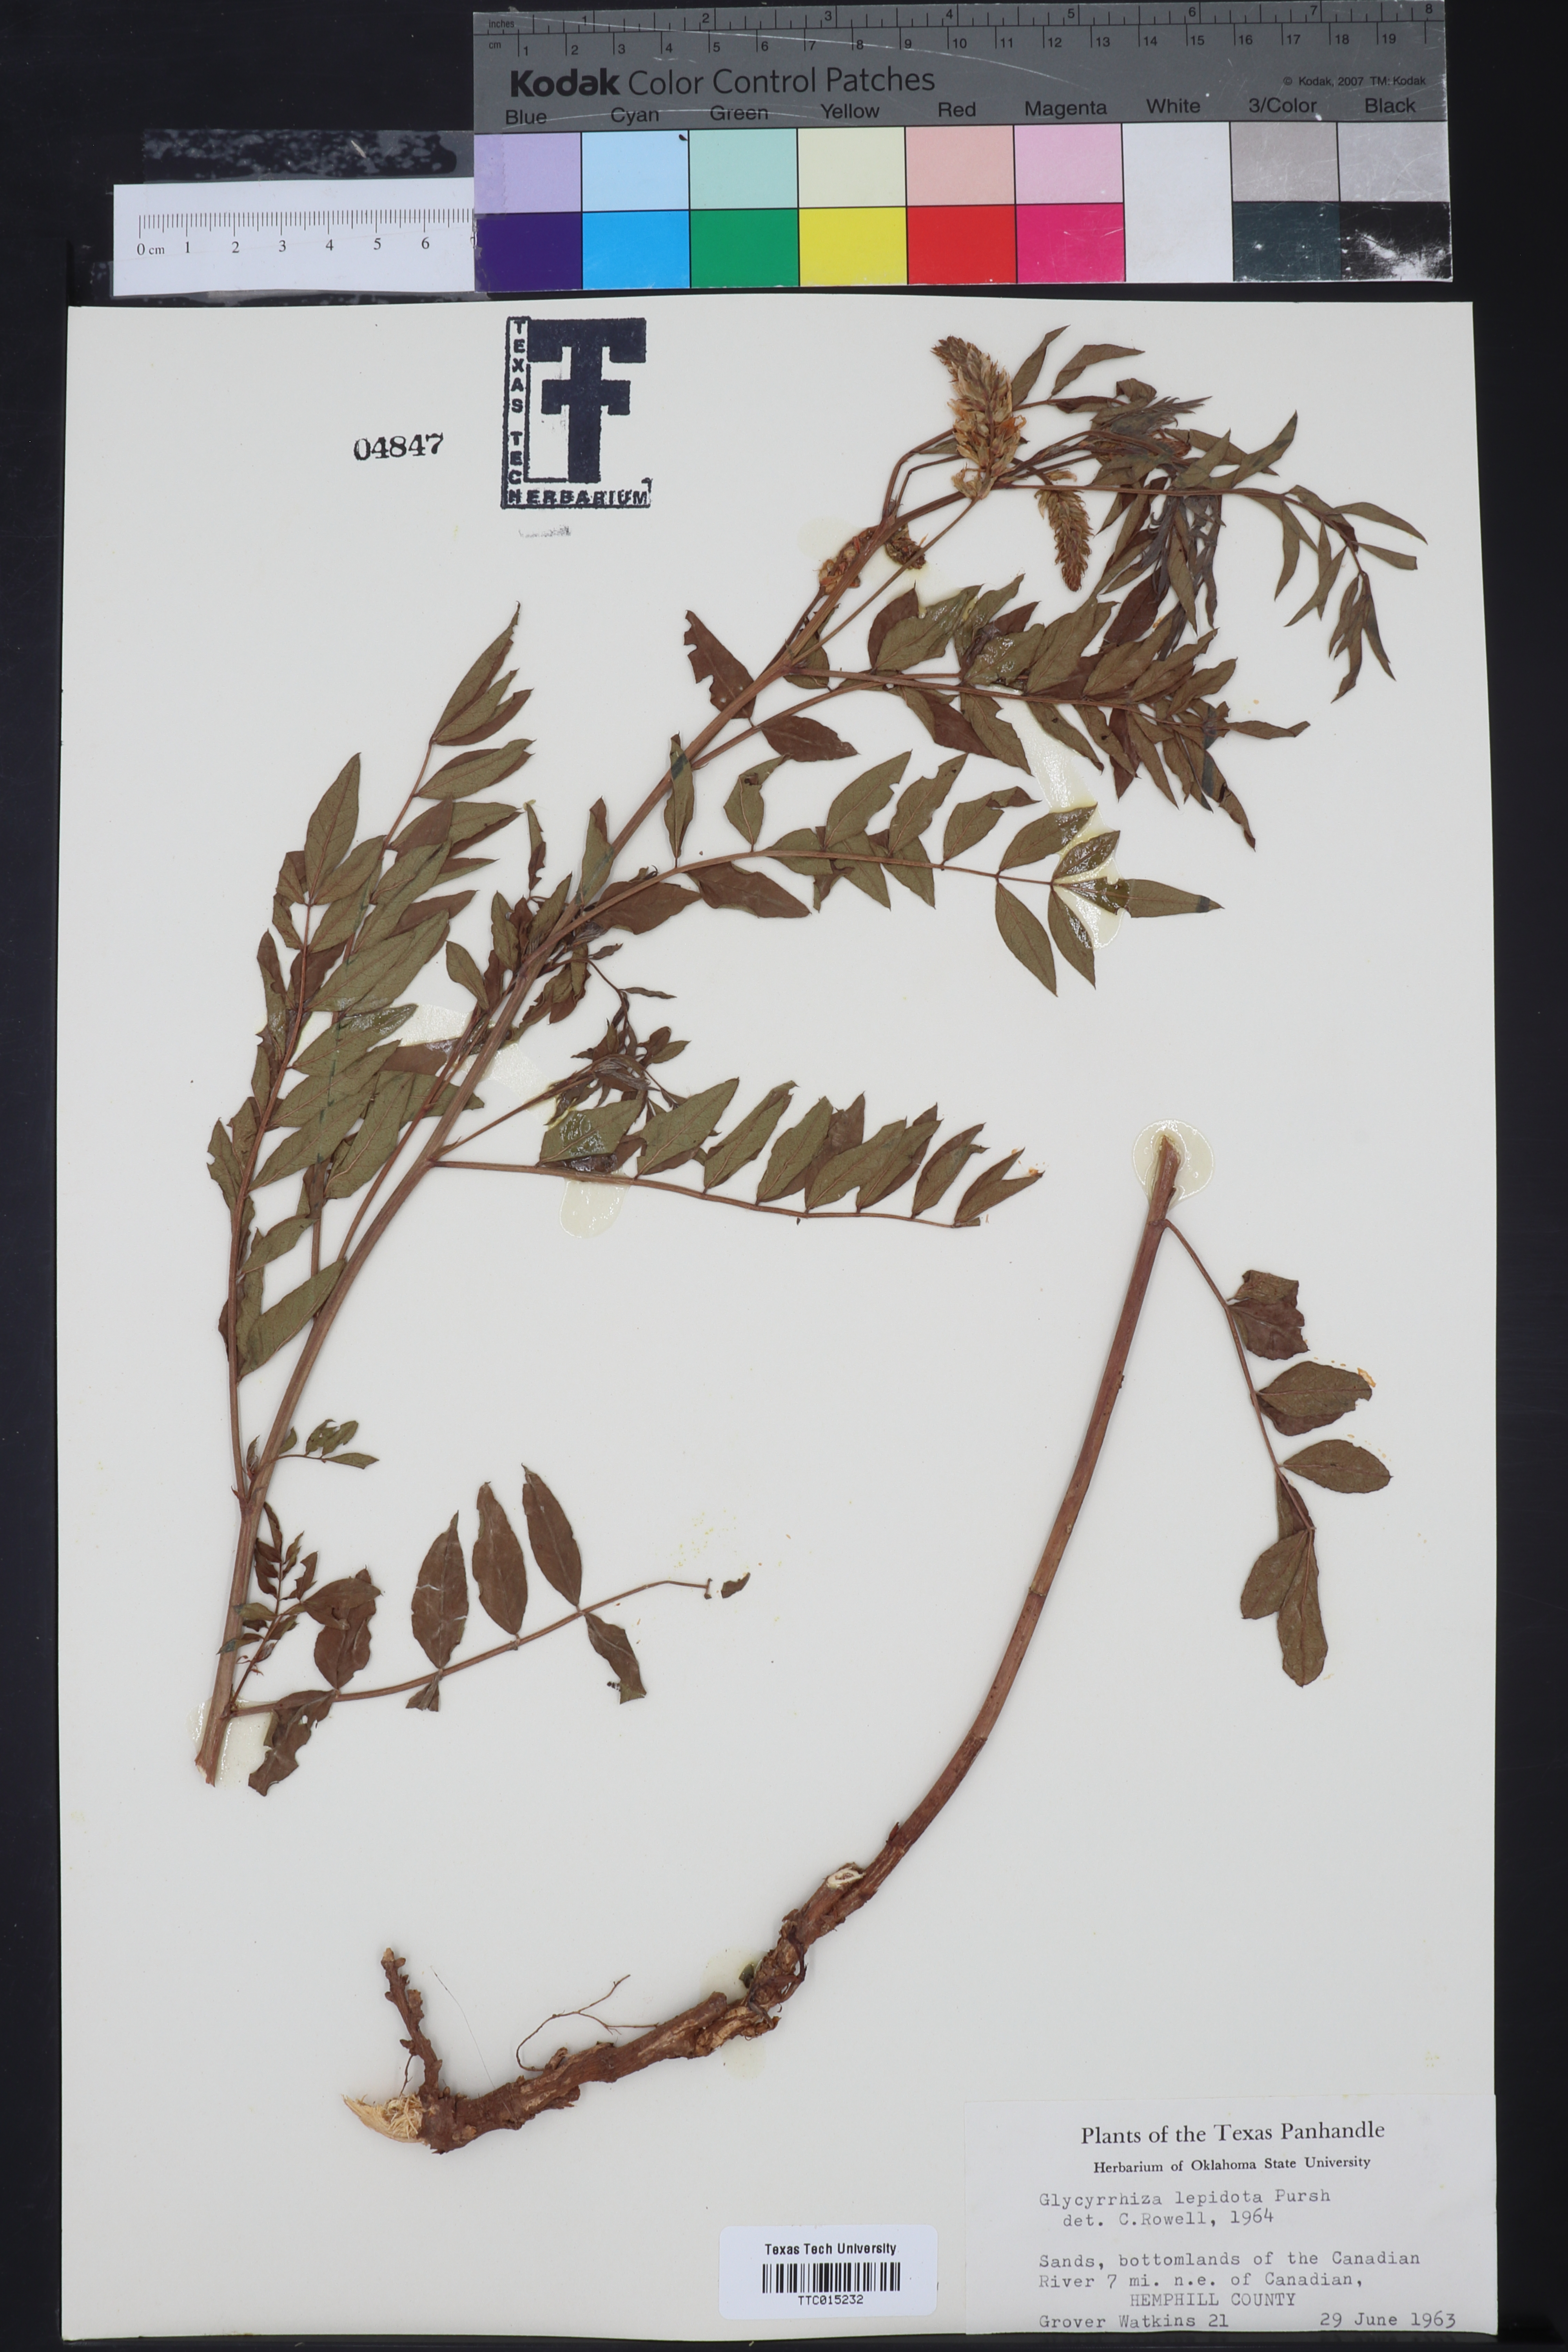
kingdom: Plantae
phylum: Tracheophyta
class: Magnoliopsida
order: Fabales
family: Fabaceae
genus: Glycyrrhiza
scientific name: Glycyrrhiza lepidota
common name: American liquorice
